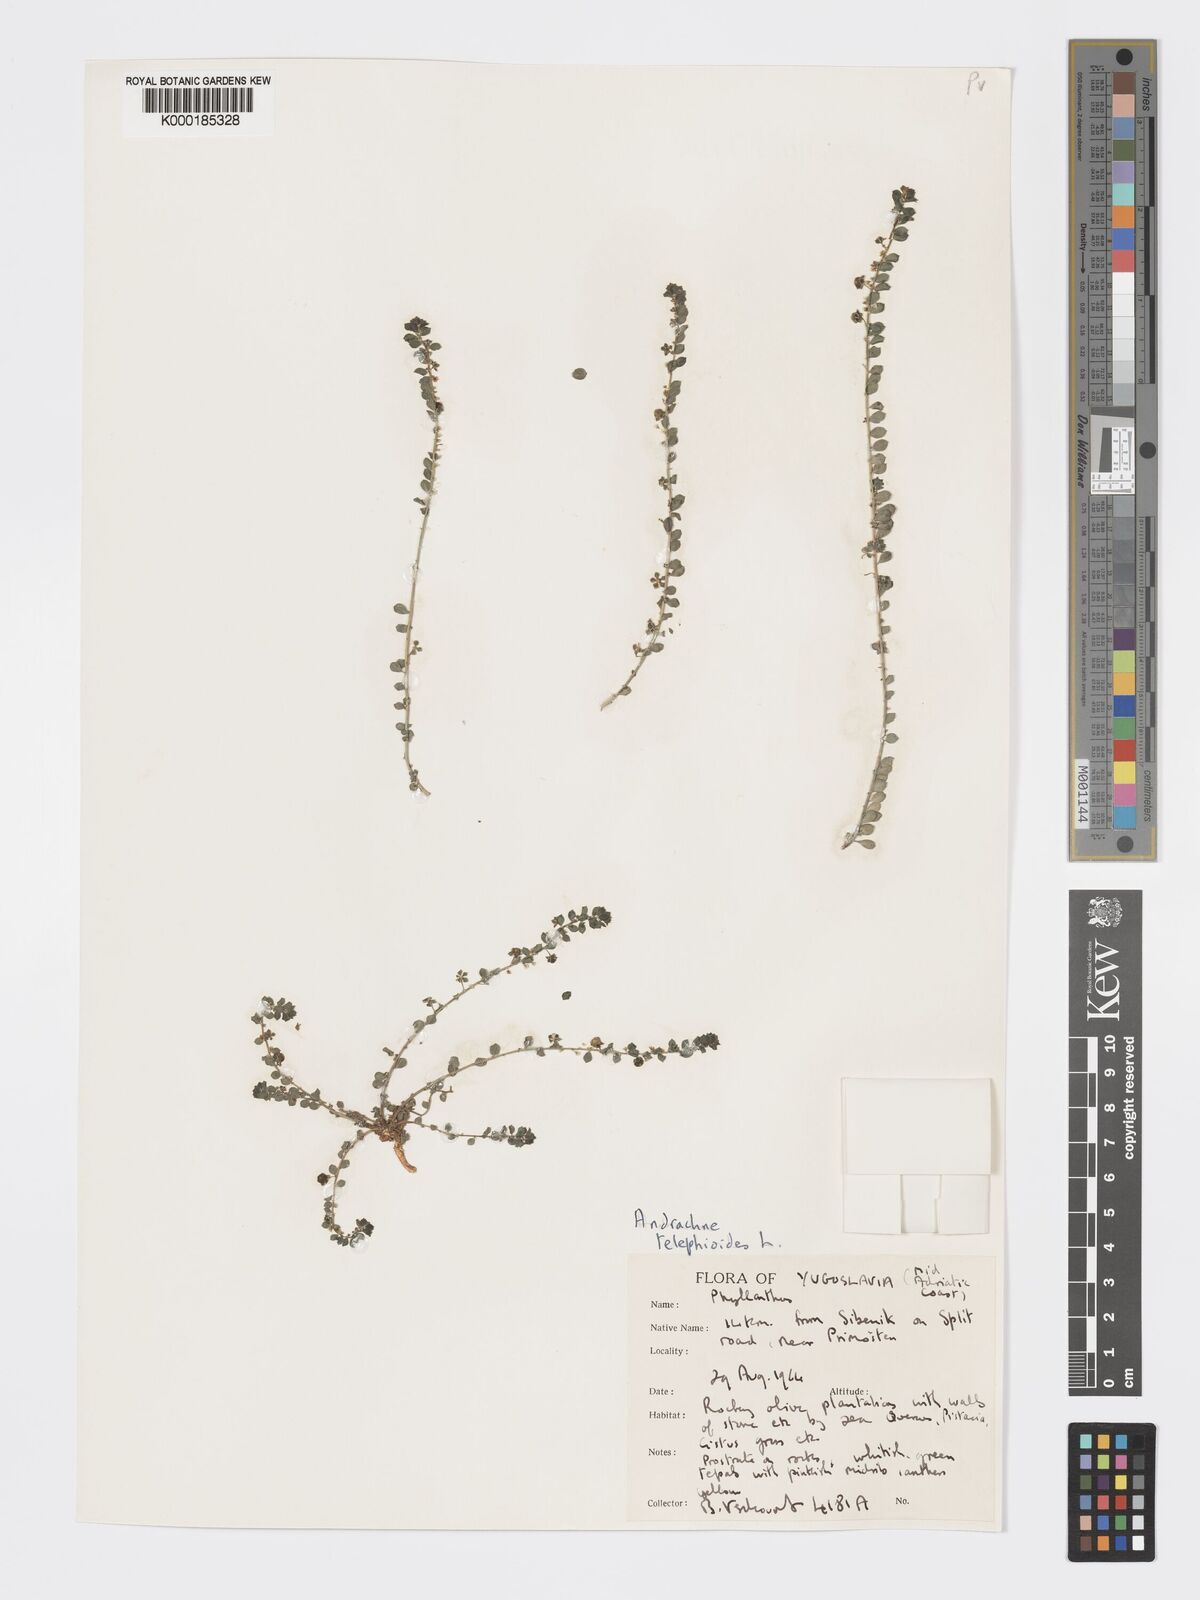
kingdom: Plantae
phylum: Tracheophyta
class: Magnoliopsida
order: Malpighiales
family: Phyllanthaceae
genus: Andrachne
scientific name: Andrachne telephioides
